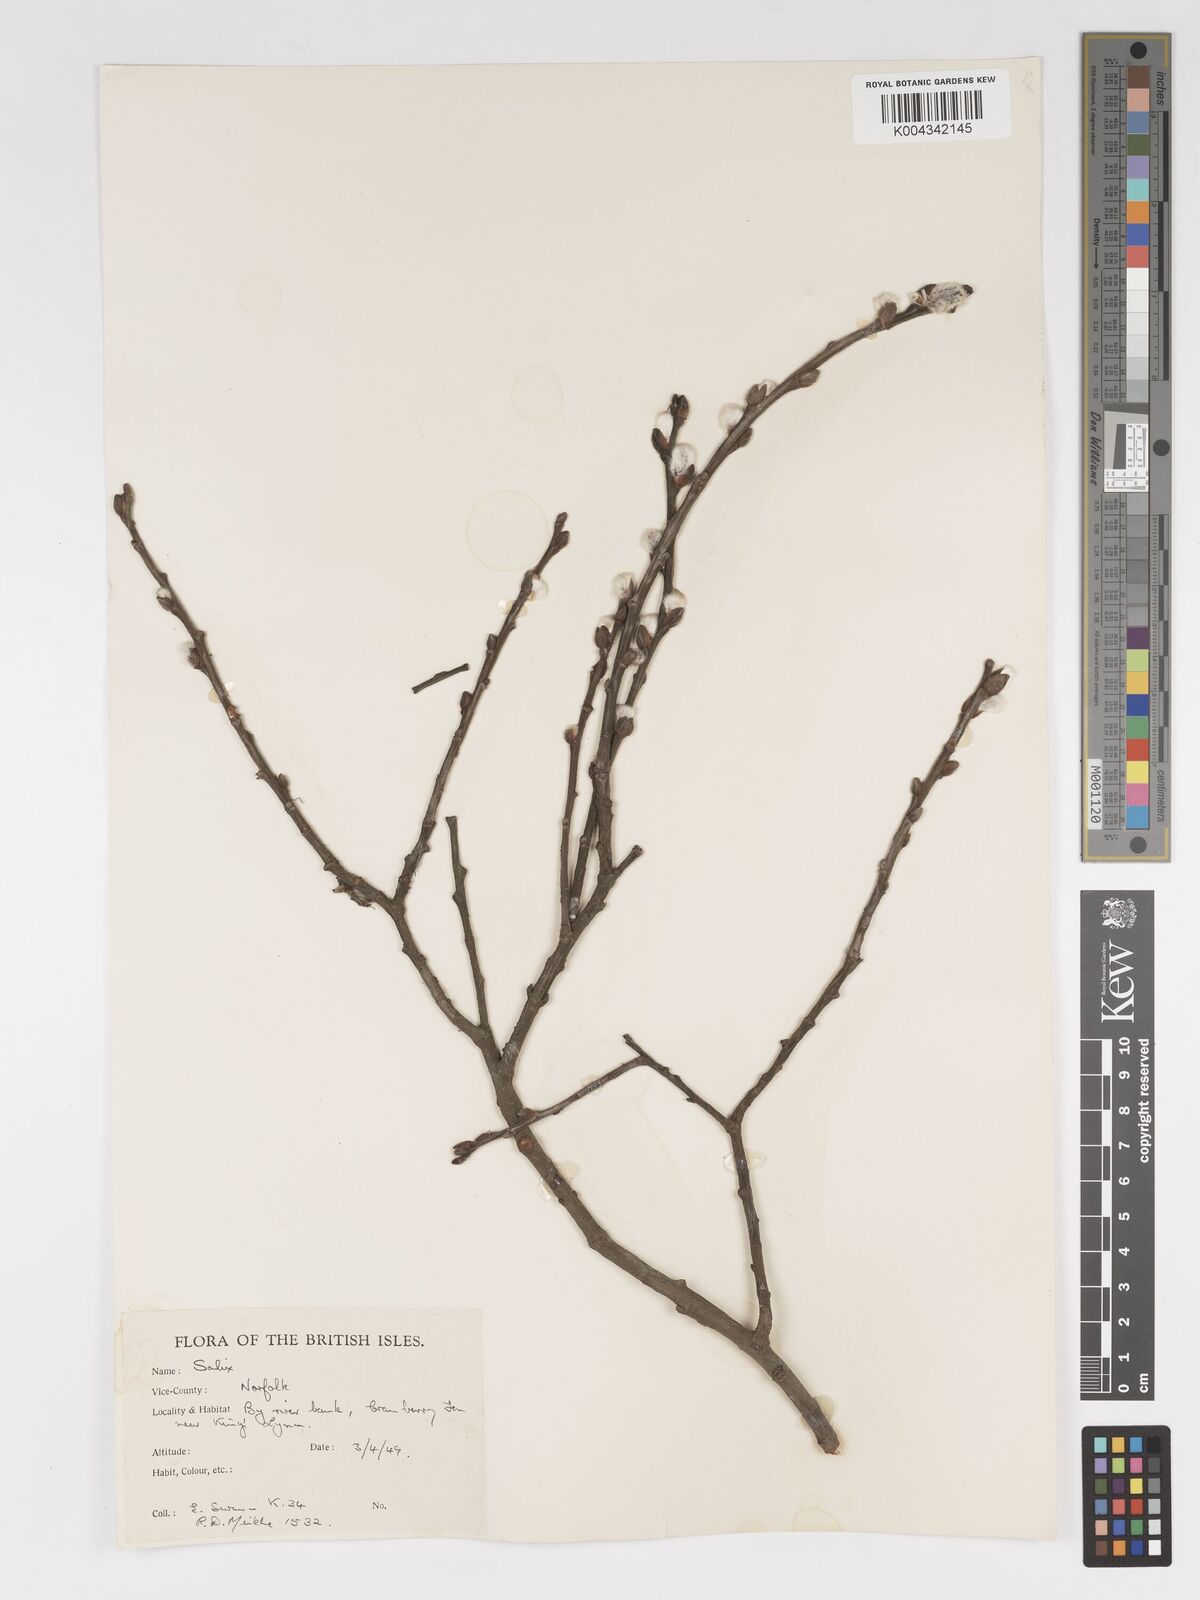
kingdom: Plantae
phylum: Tracheophyta
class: Magnoliopsida
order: Malpighiales
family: Salicaceae
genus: Salix
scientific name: Salix
